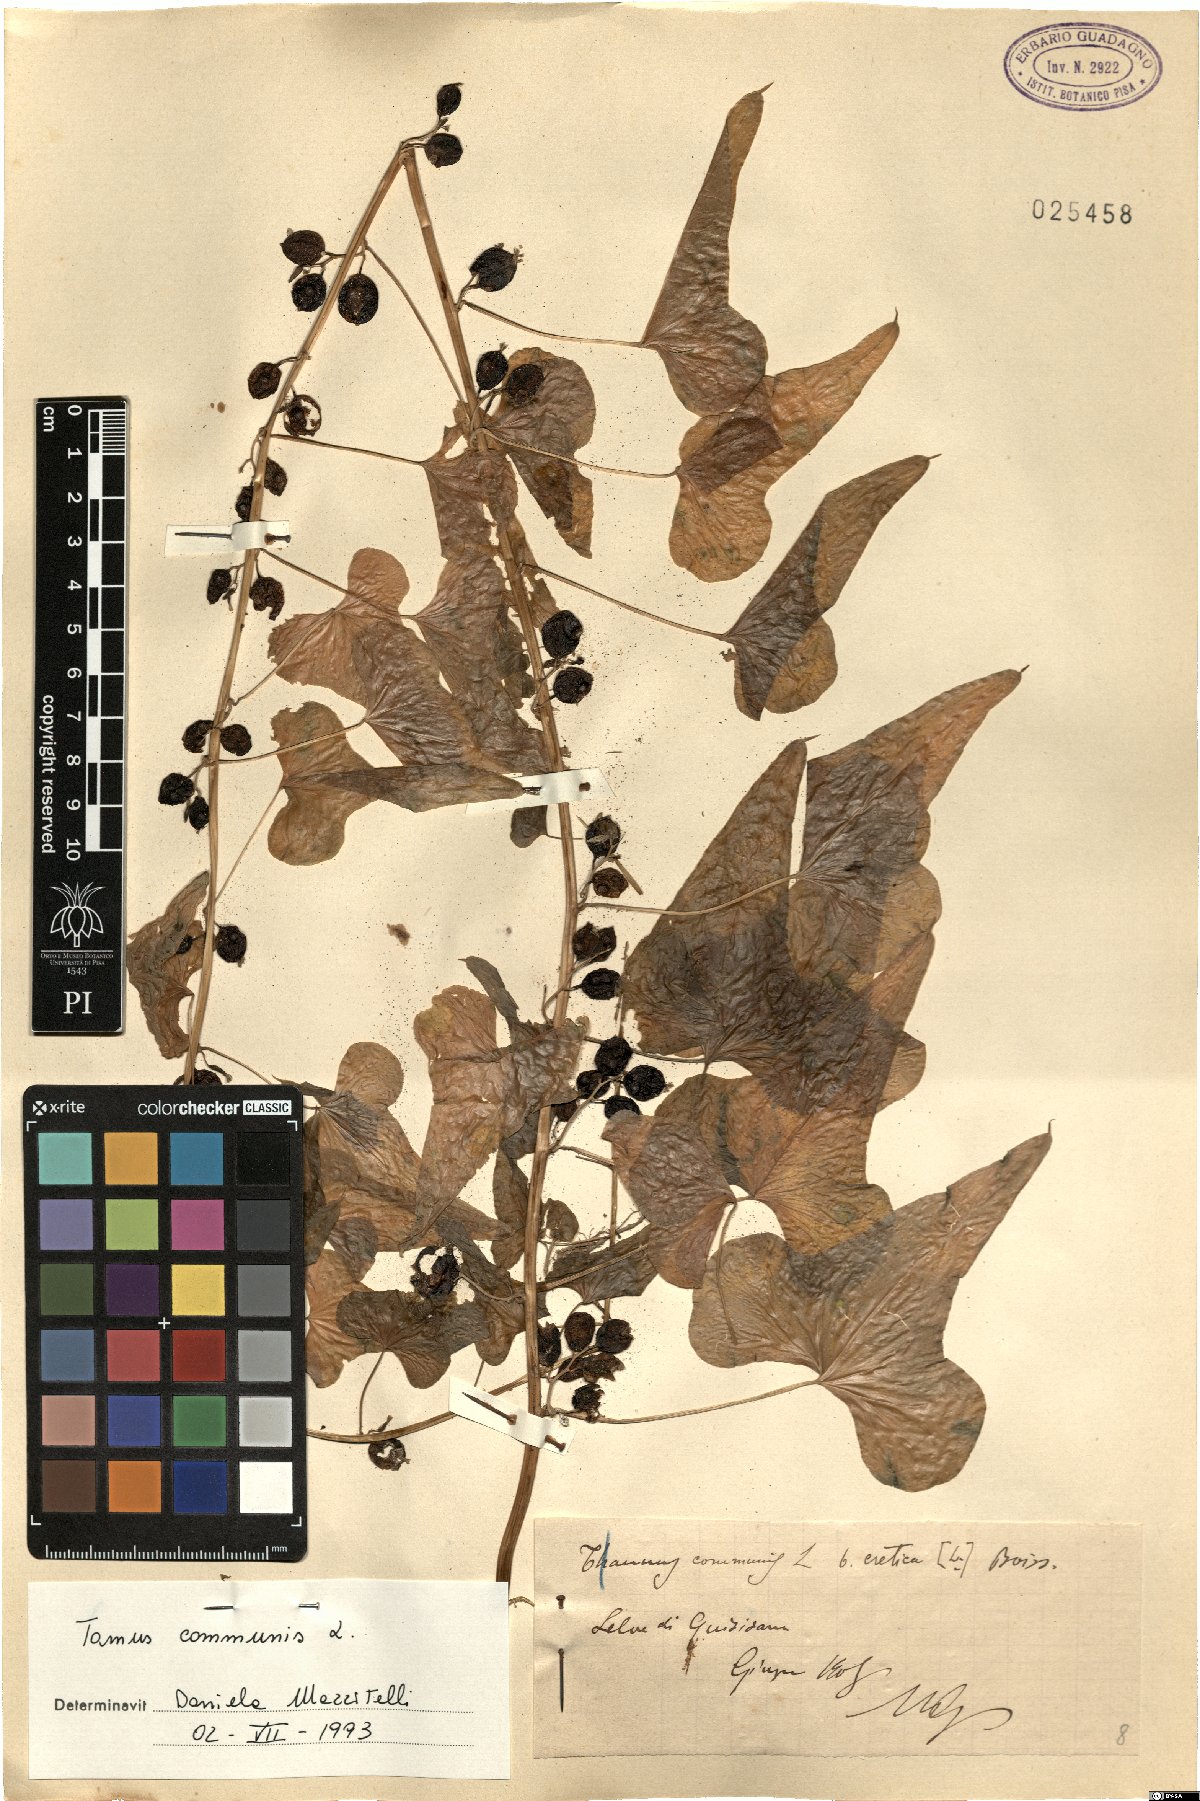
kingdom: Plantae
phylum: Tracheophyta
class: Liliopsida
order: Dioscoreales
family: Dioscoreaceae
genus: Dioscorea
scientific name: Dioscorea communis
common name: Black-bindweed
